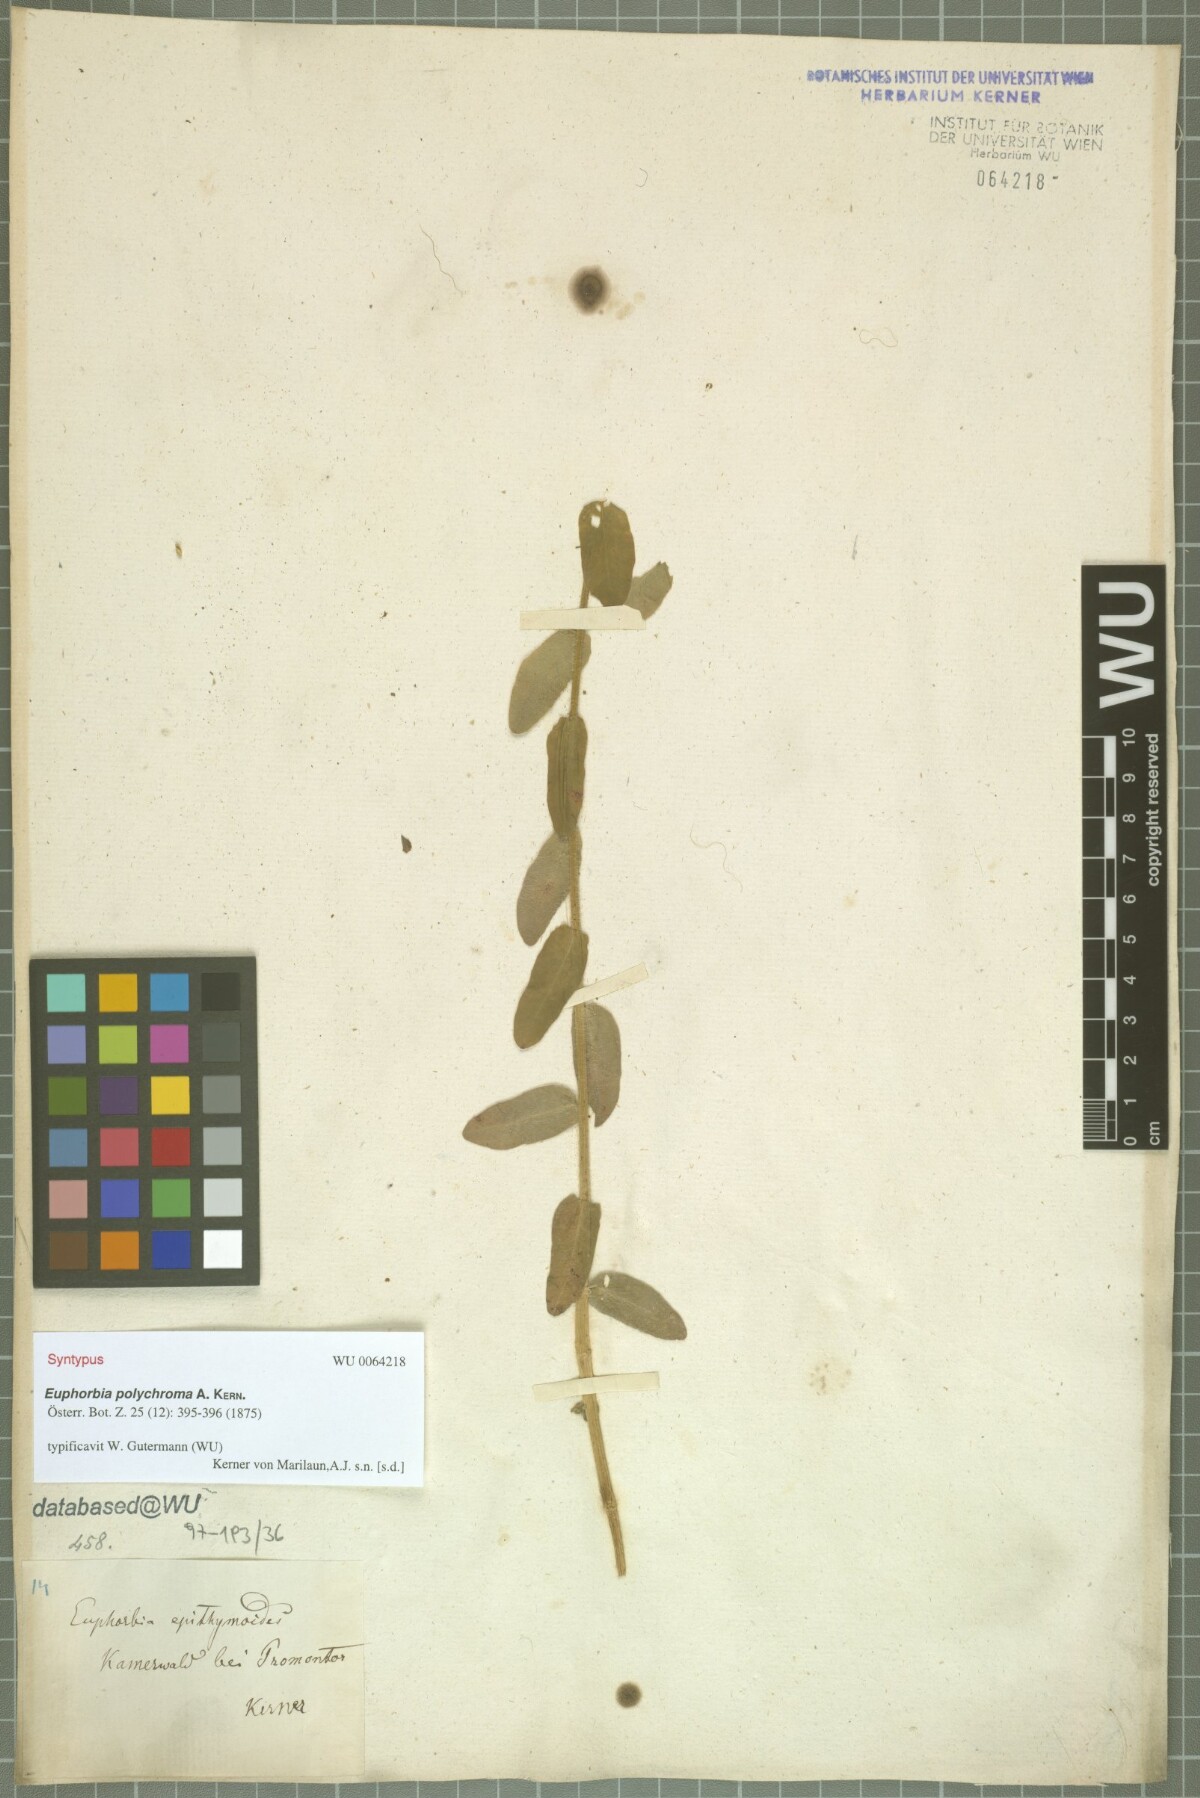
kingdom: Plantae
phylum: Tracheophyta
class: Magnoliopsida
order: Malpighiales
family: Euphorbiaceae
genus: Euphorbia
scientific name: Euphorbia epithymoides
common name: Cushion spurge
